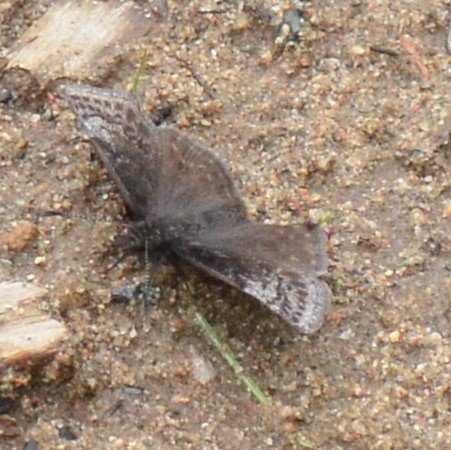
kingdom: Animalia
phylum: Arthropoda
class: Insecta
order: Lepidoptera
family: Hesperiidae
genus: Erynnis
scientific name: Erynnis icelus
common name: Dreamy Duskywing
